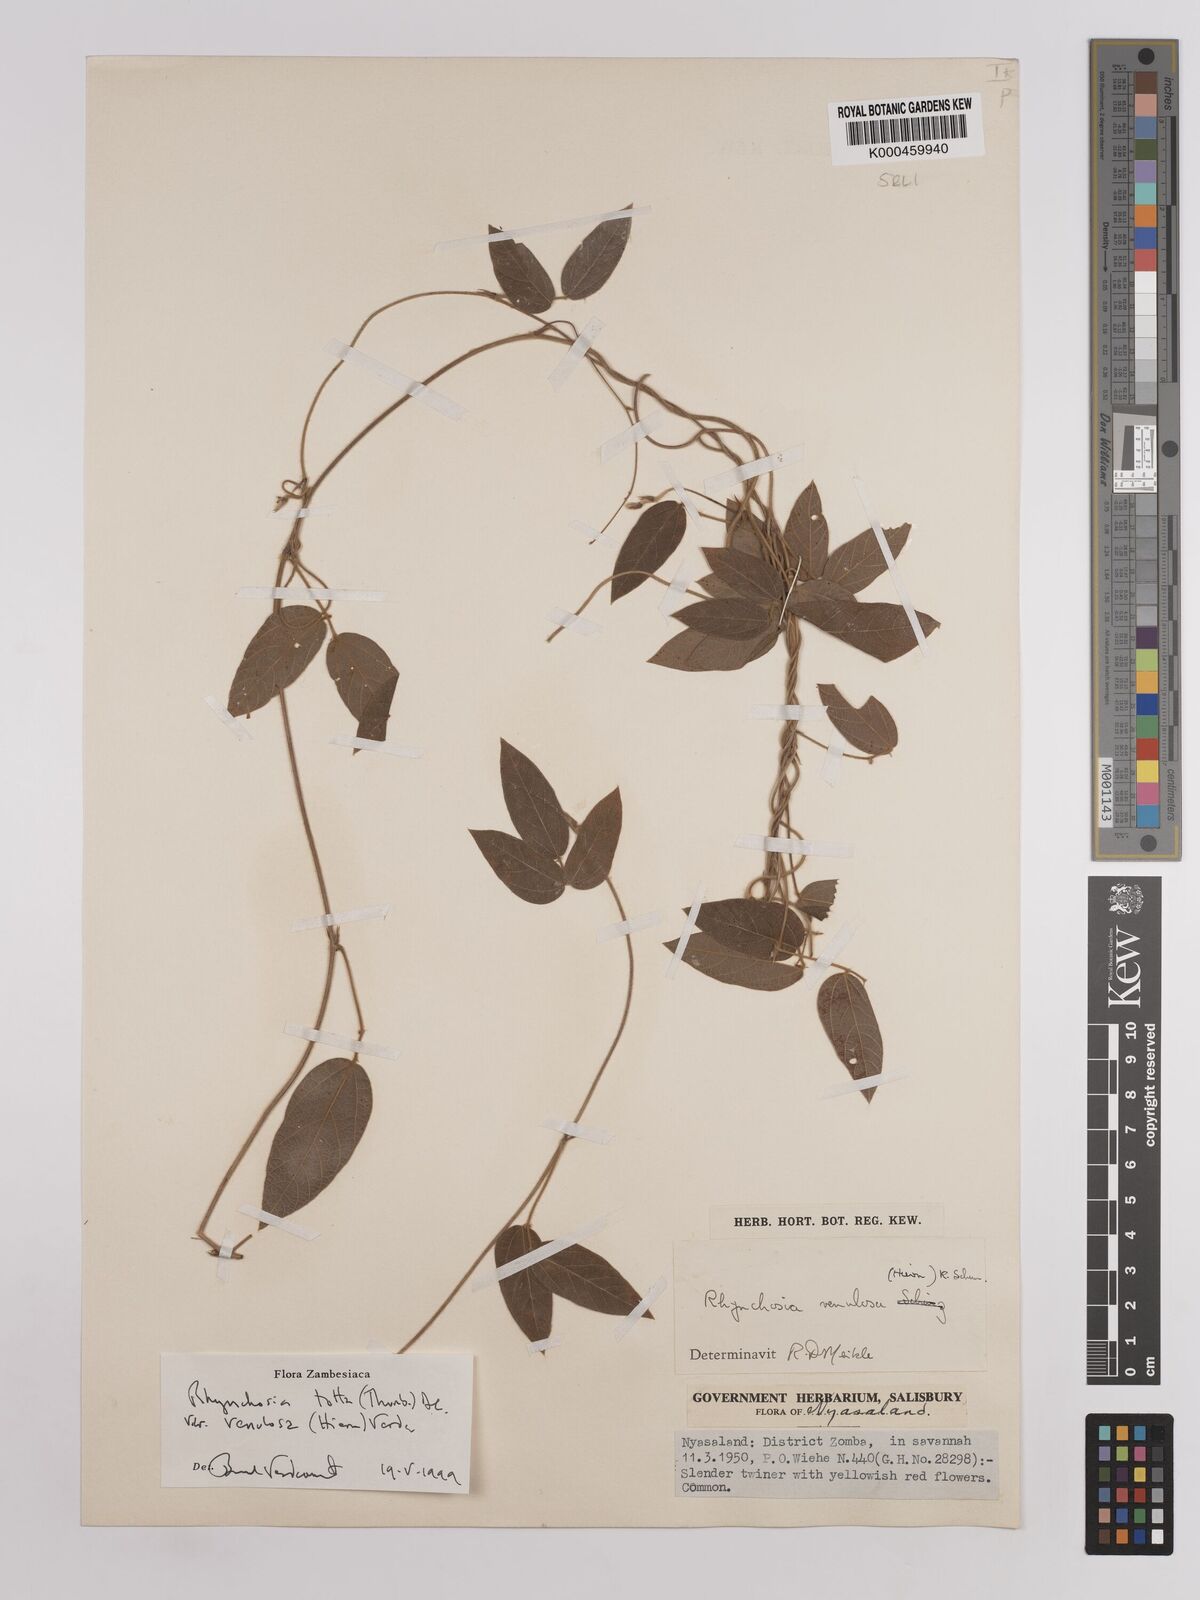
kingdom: Plantae
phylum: Tracheophyta
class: Magnoliopsida
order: Fabales
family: Fabaceae
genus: Rhynchosia
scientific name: Rhynchosia totta
